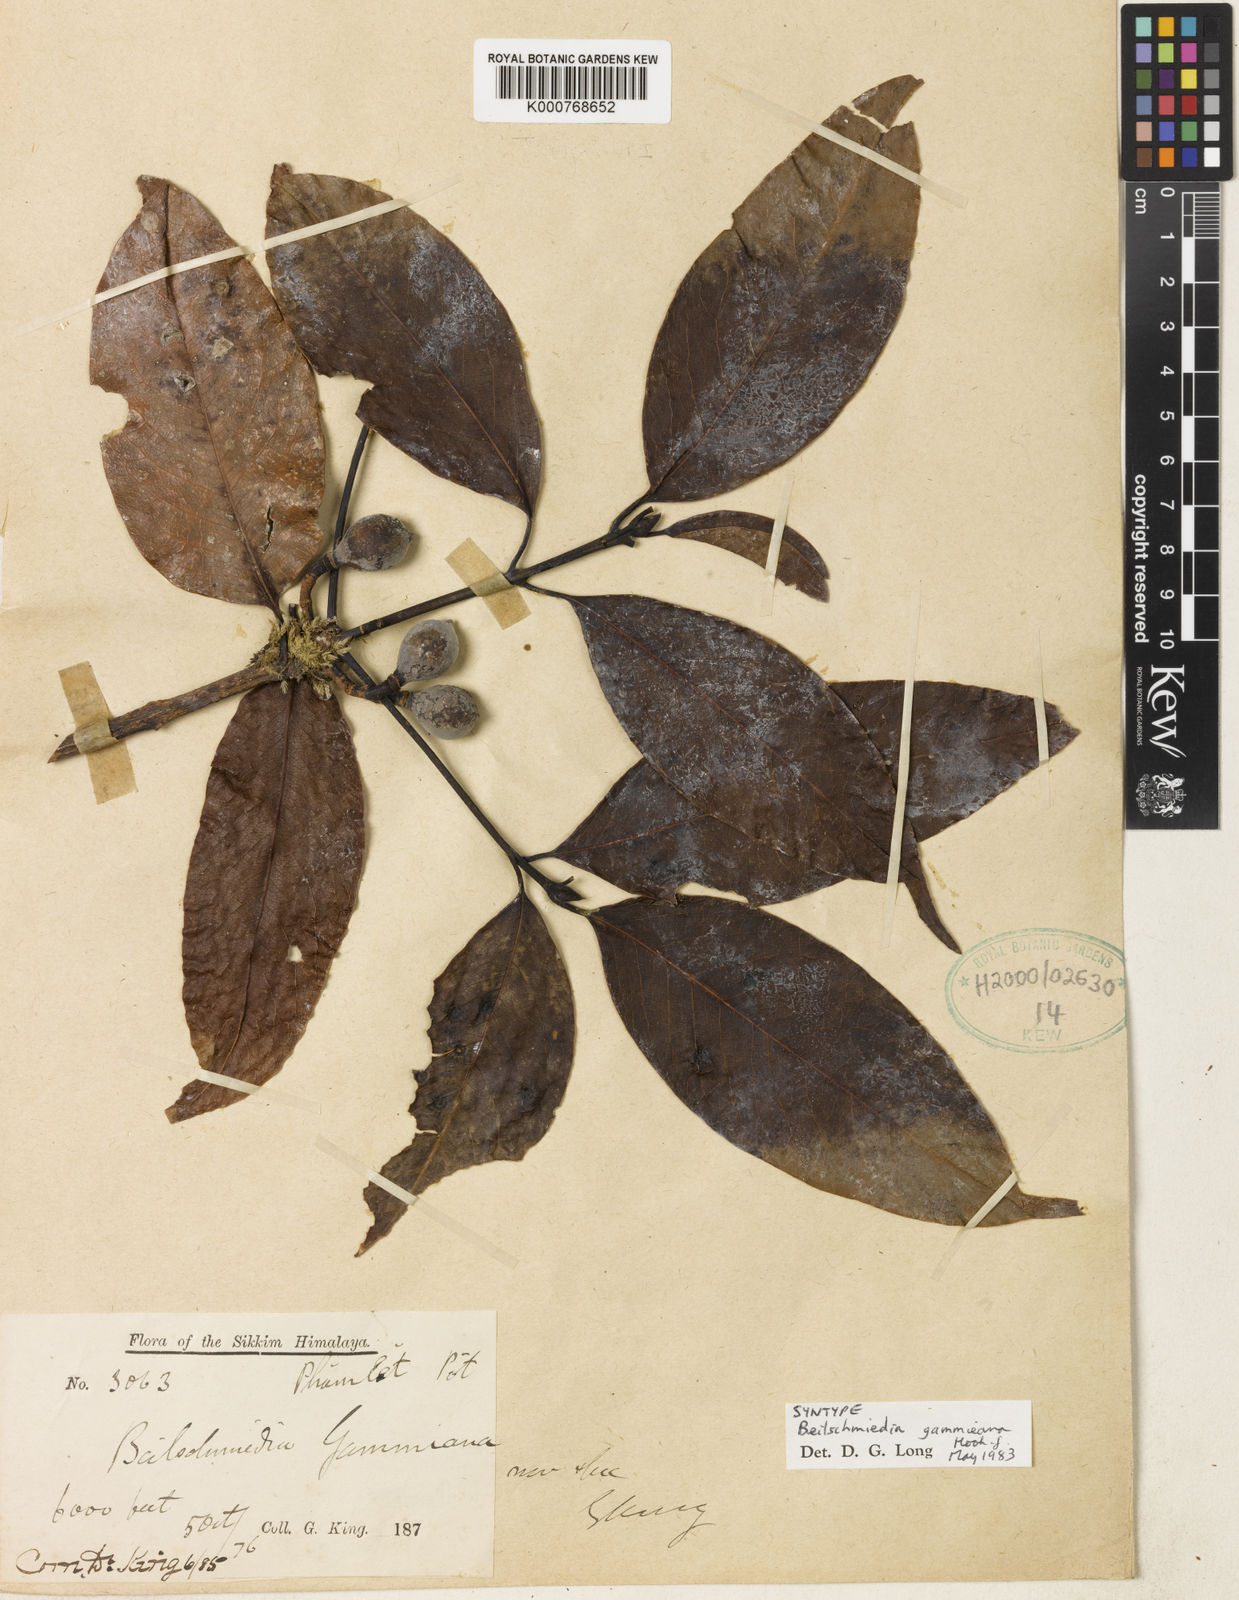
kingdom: Plantae
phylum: Tracheophyta
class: Magnoliopsida
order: Laurales
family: Lauraceae
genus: Beilschmiedia
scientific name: Beilschmiedia gammieana
